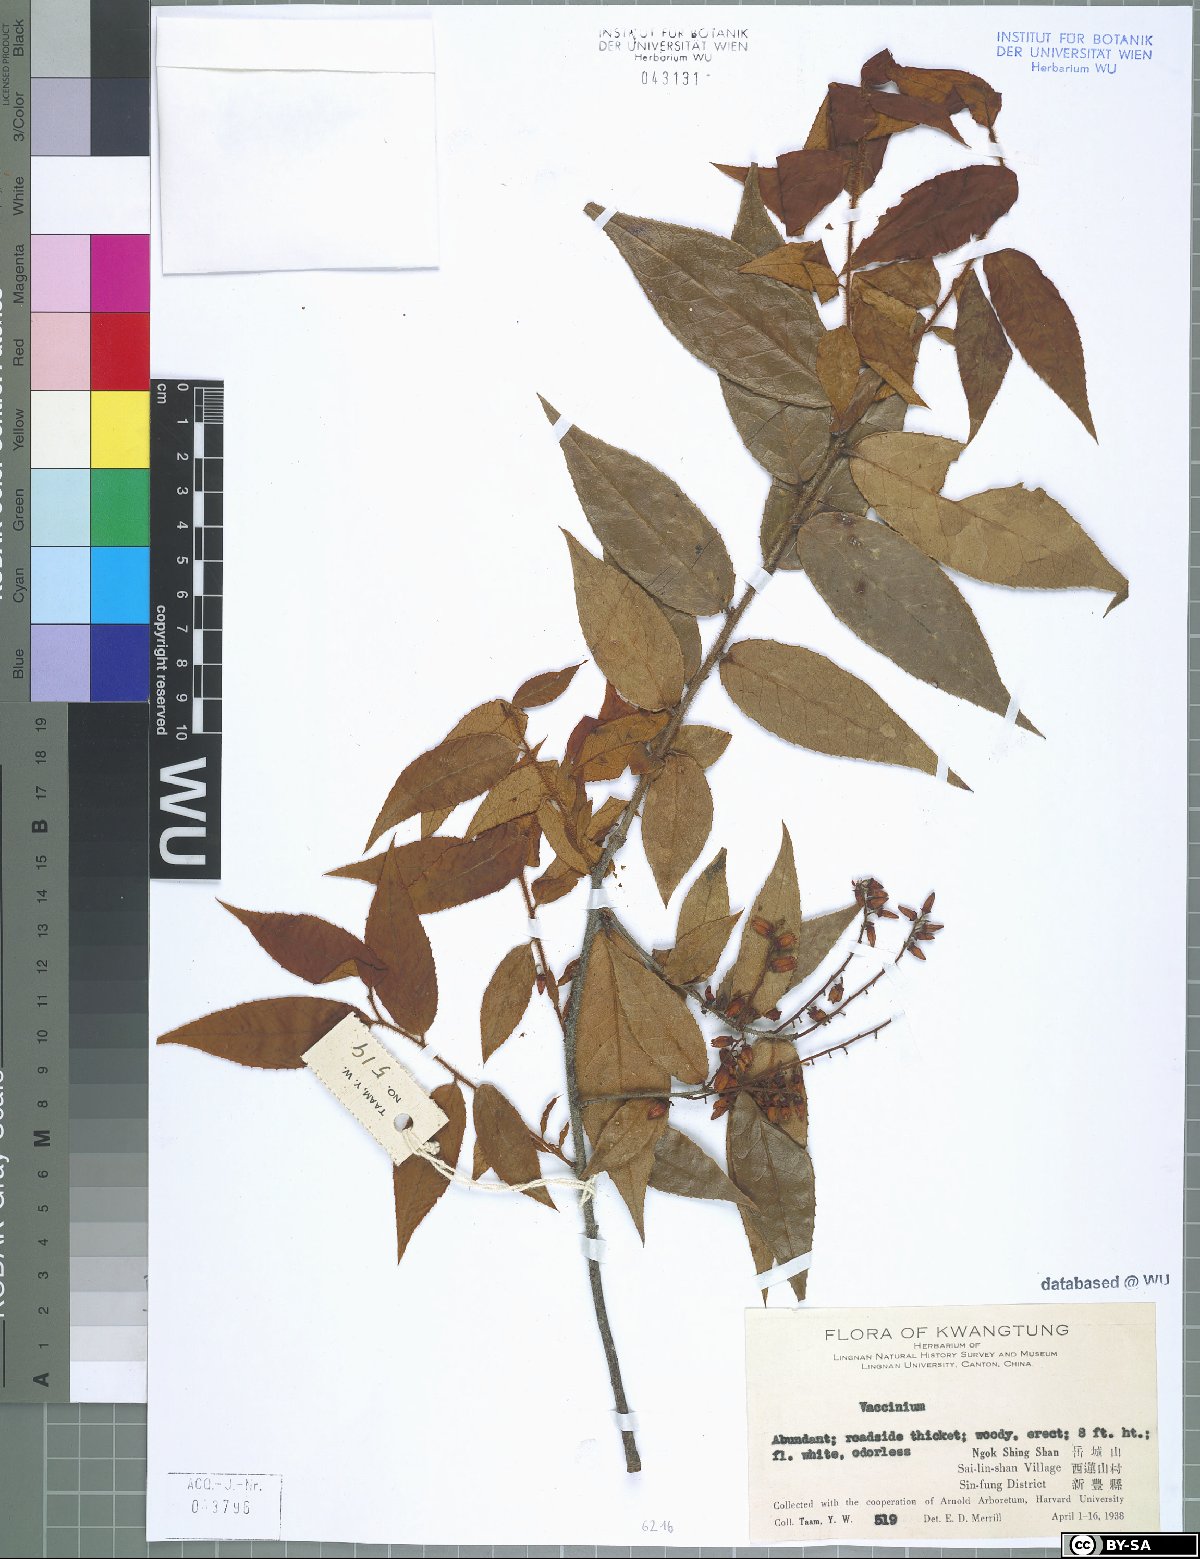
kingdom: Plantae
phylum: Tracheophyta
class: Magnoliopsida
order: Ericales
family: Ericaceae
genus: Vaccinium
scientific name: Vaccinium
